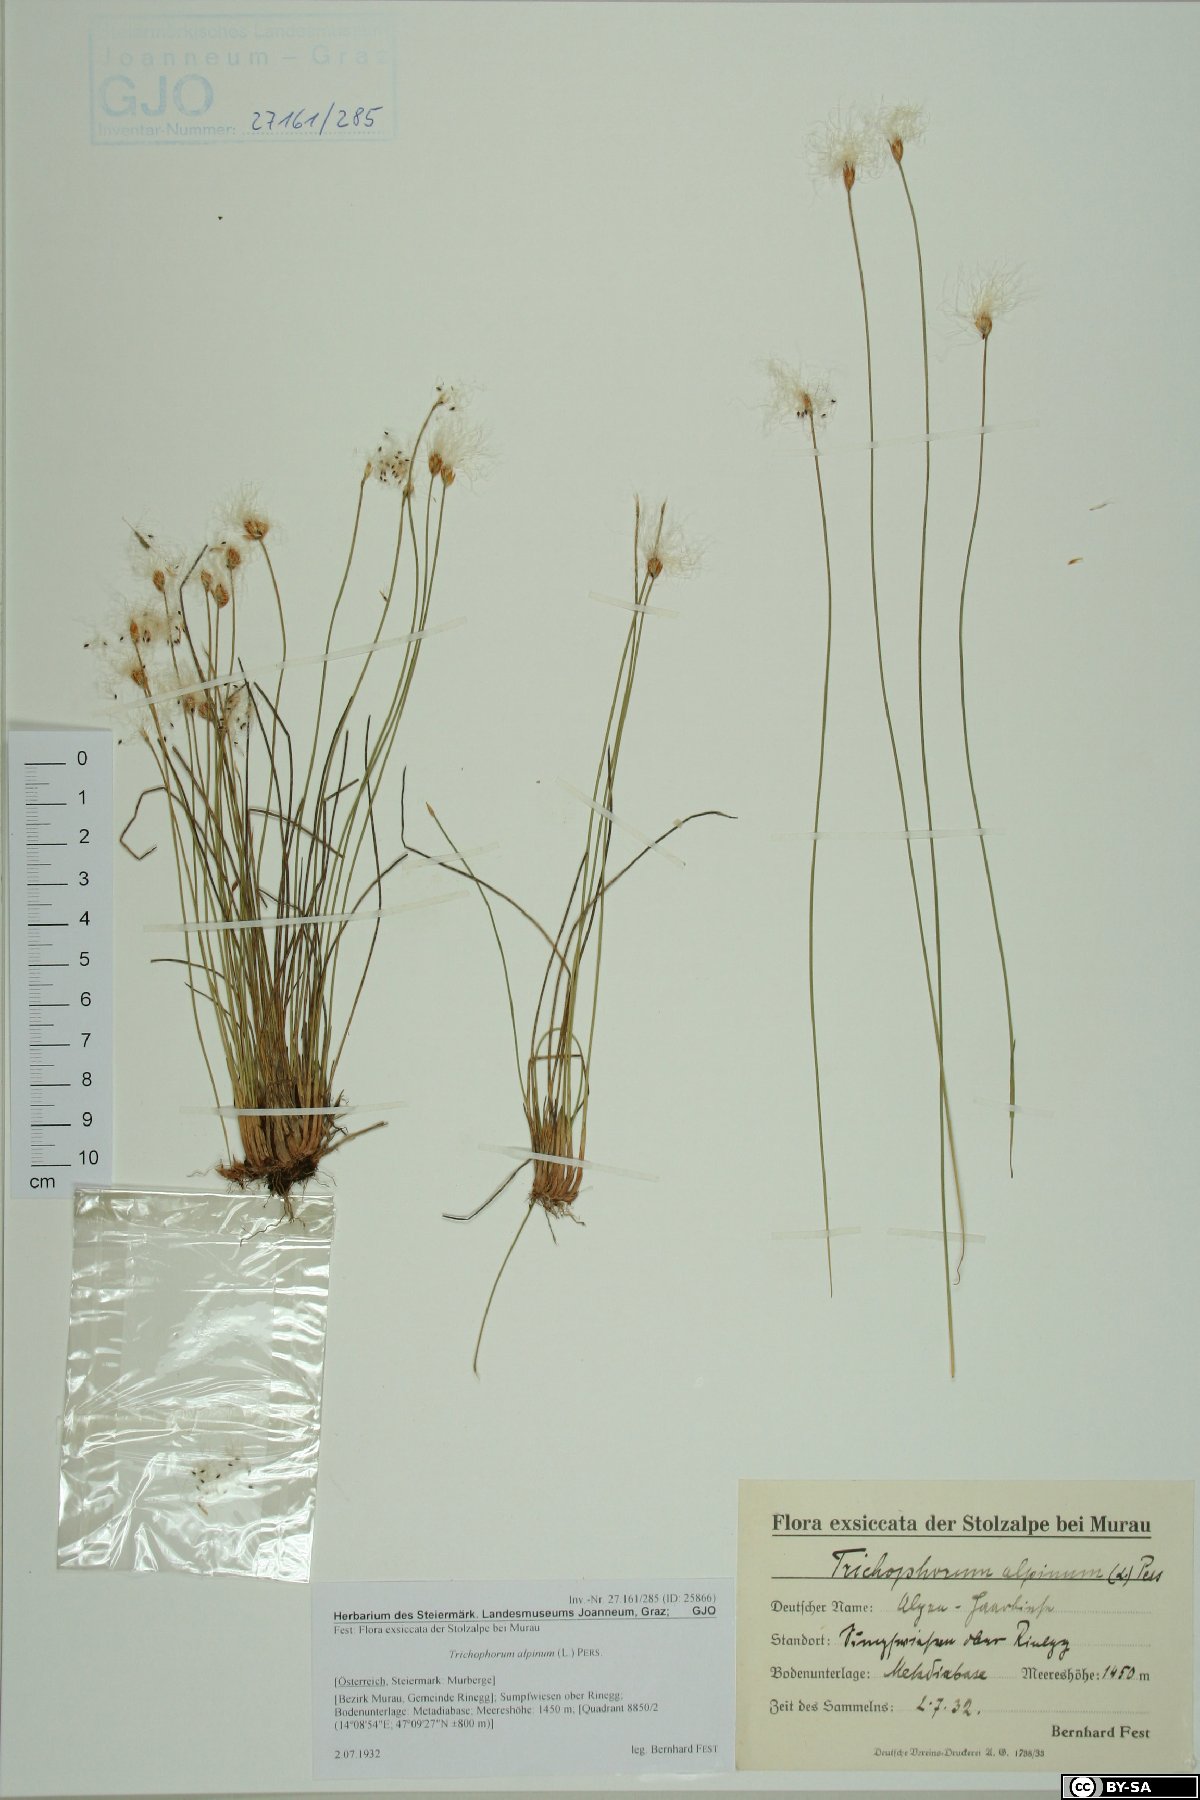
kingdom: Plantae
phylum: Tracheophyta
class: Liliopsida
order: Poales
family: Cyperaceae
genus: Trichophorum
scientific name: Trichophorum alpinum
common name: Alpine bulrush
